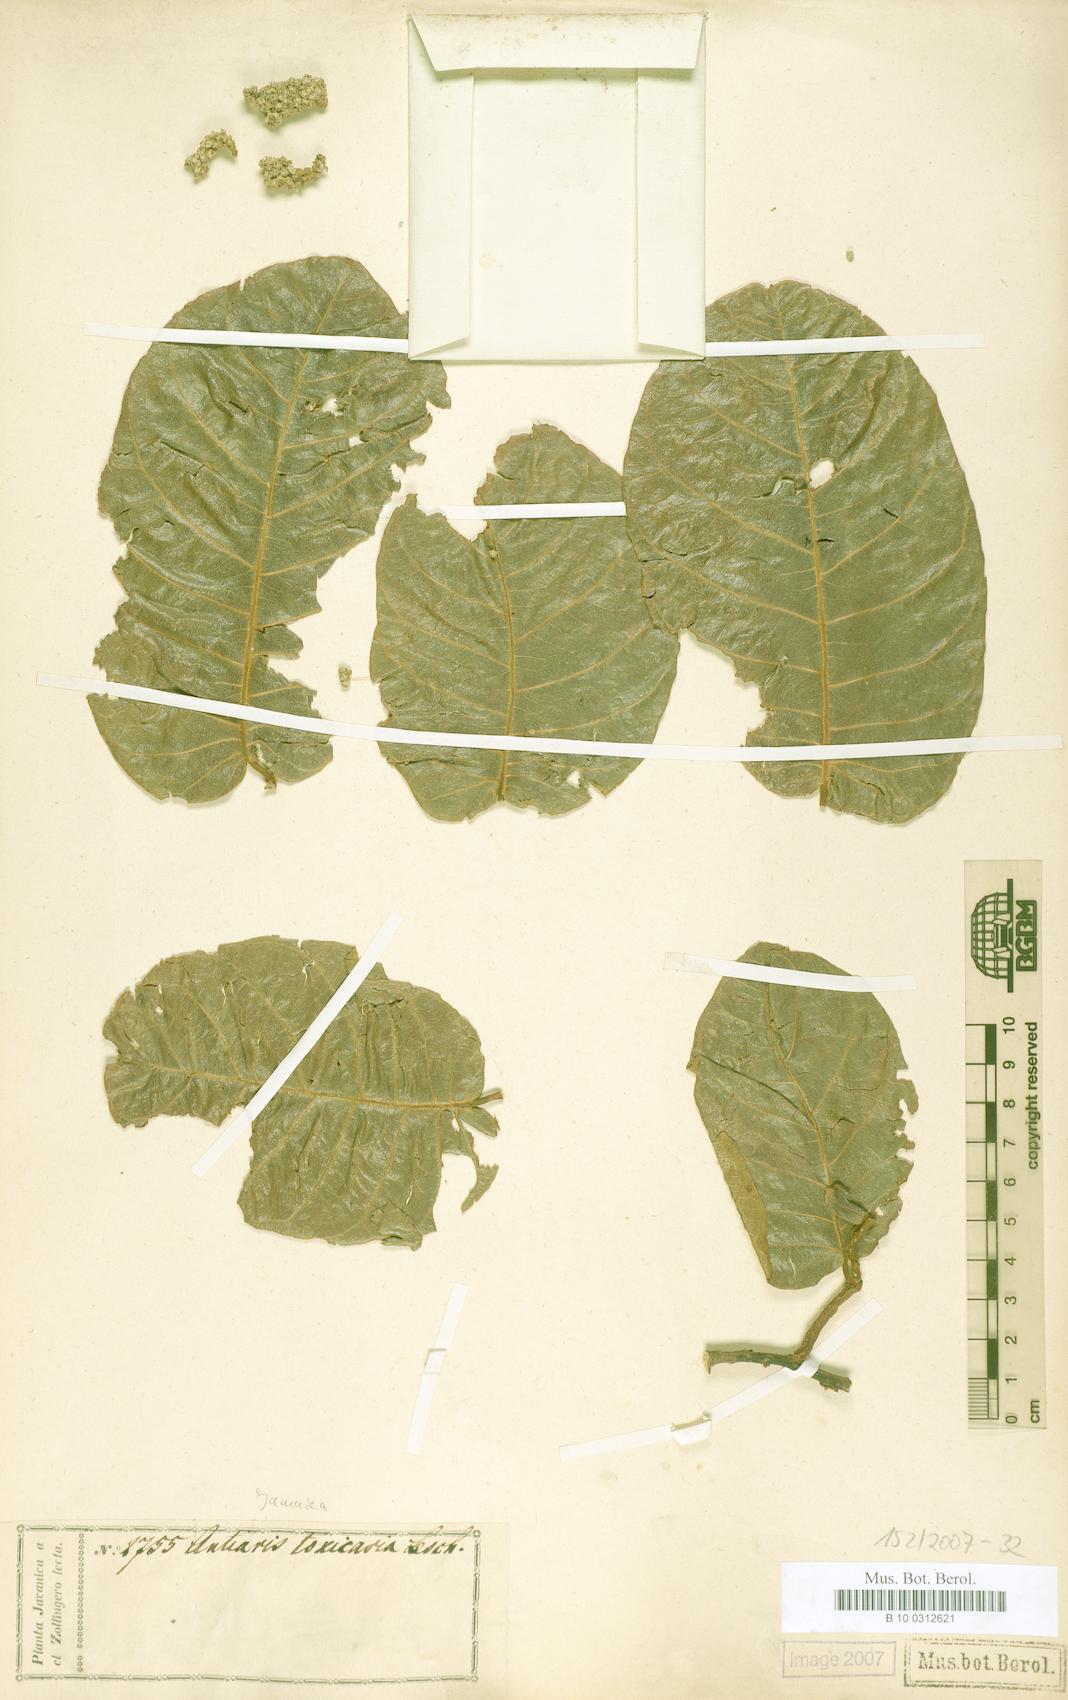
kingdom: Plantae
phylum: Tracheophyta
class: Magnoliopsida
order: Rosales
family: Moraceae
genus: Antiaris
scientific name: Antiaris toxicaria
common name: Sackingtree
